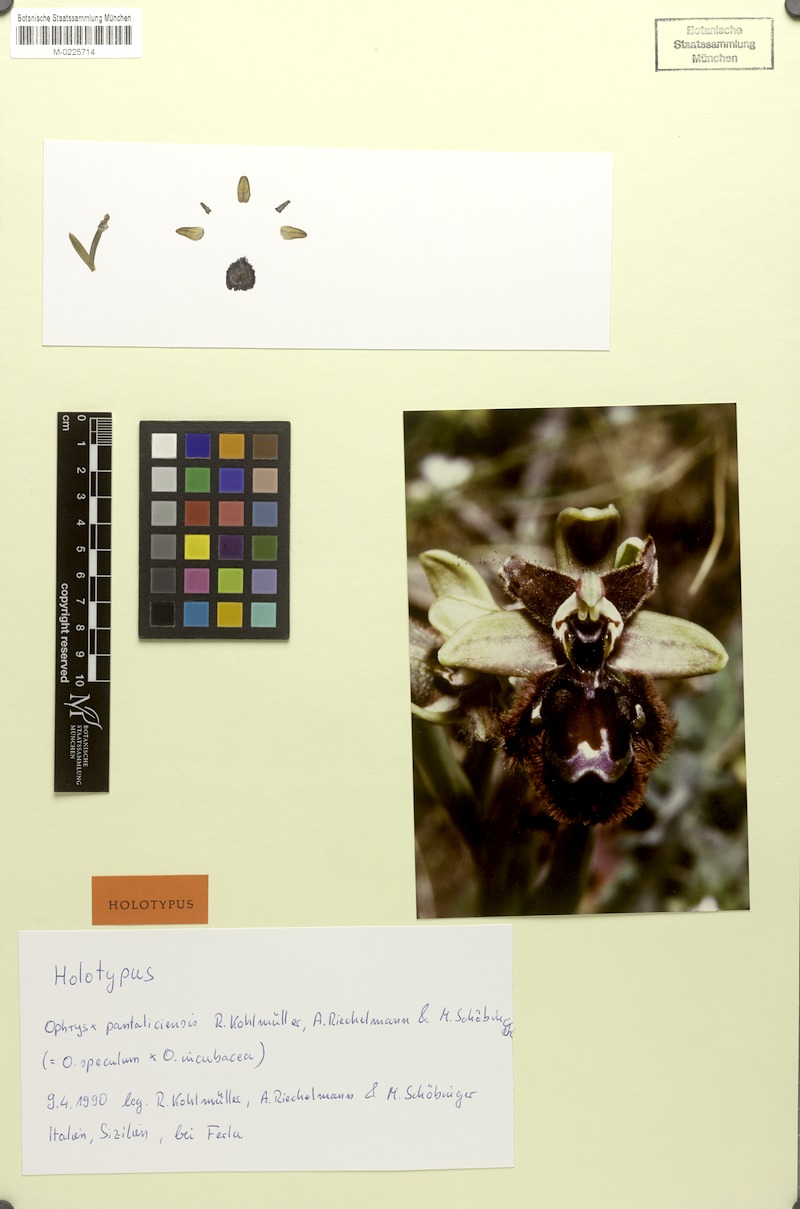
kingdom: Plantae
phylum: Tracheophyta
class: Liliopsida
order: Asparagales
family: Orchidaceae
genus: Ophrys
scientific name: Ophrys macchiatii
